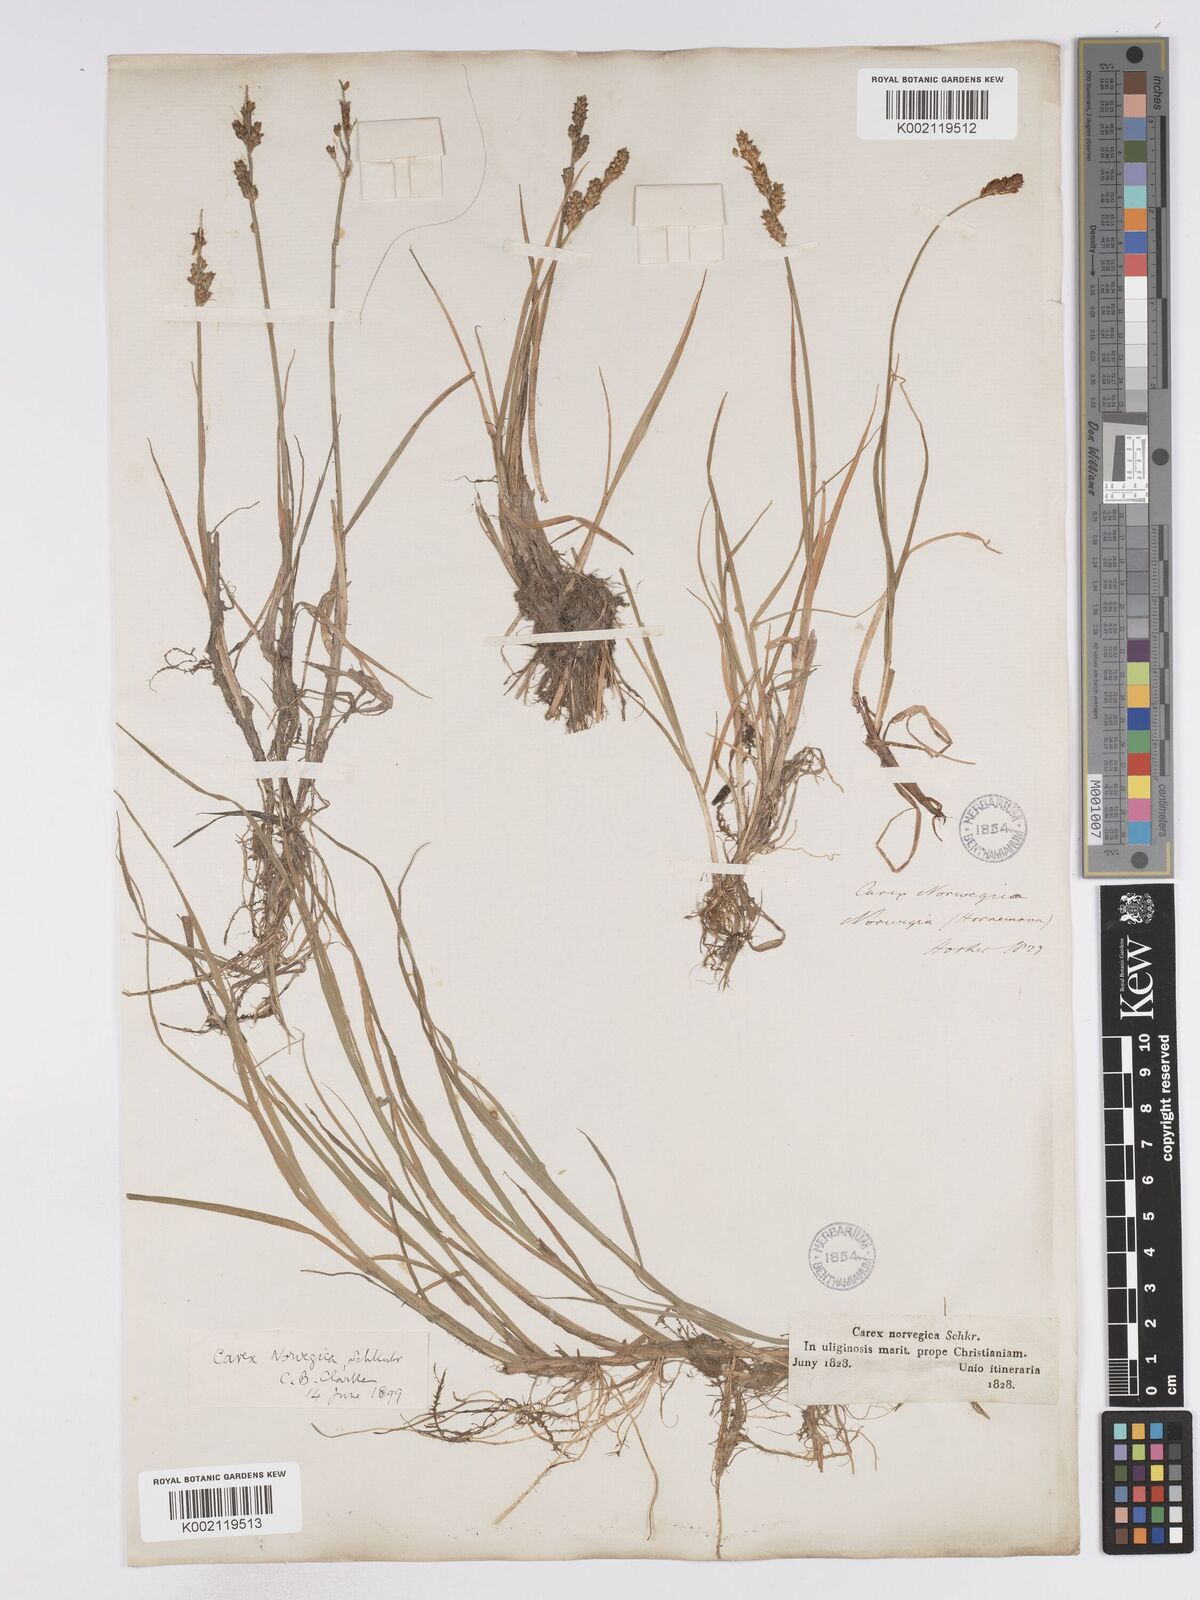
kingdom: Plantae
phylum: Tracheophyta
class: Liliopsida
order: Poales
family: Cyperaceae
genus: Carex
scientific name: Carex mackenziei
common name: Mackenzie's sedge
